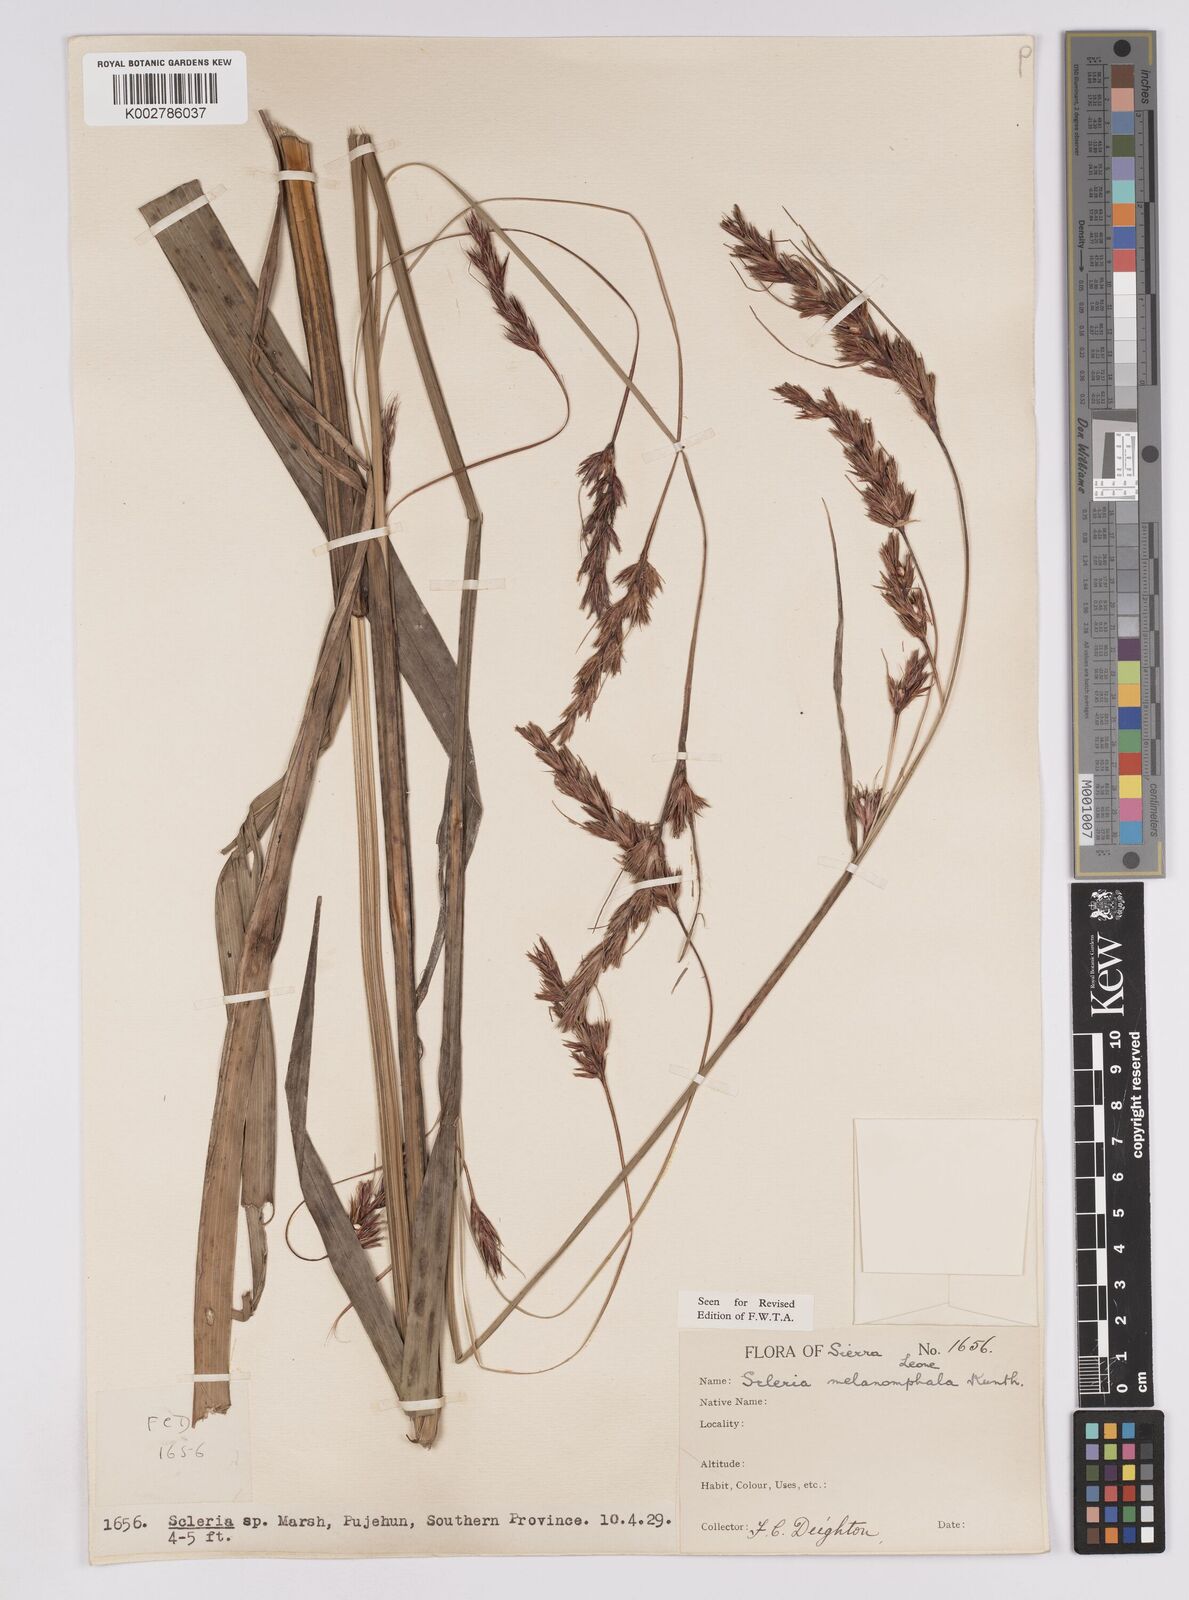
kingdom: Plantae
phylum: Tracheophyta
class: Liliopsida
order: Poales
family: Cyperaceae
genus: Scleria
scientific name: Scleria melanomphala
